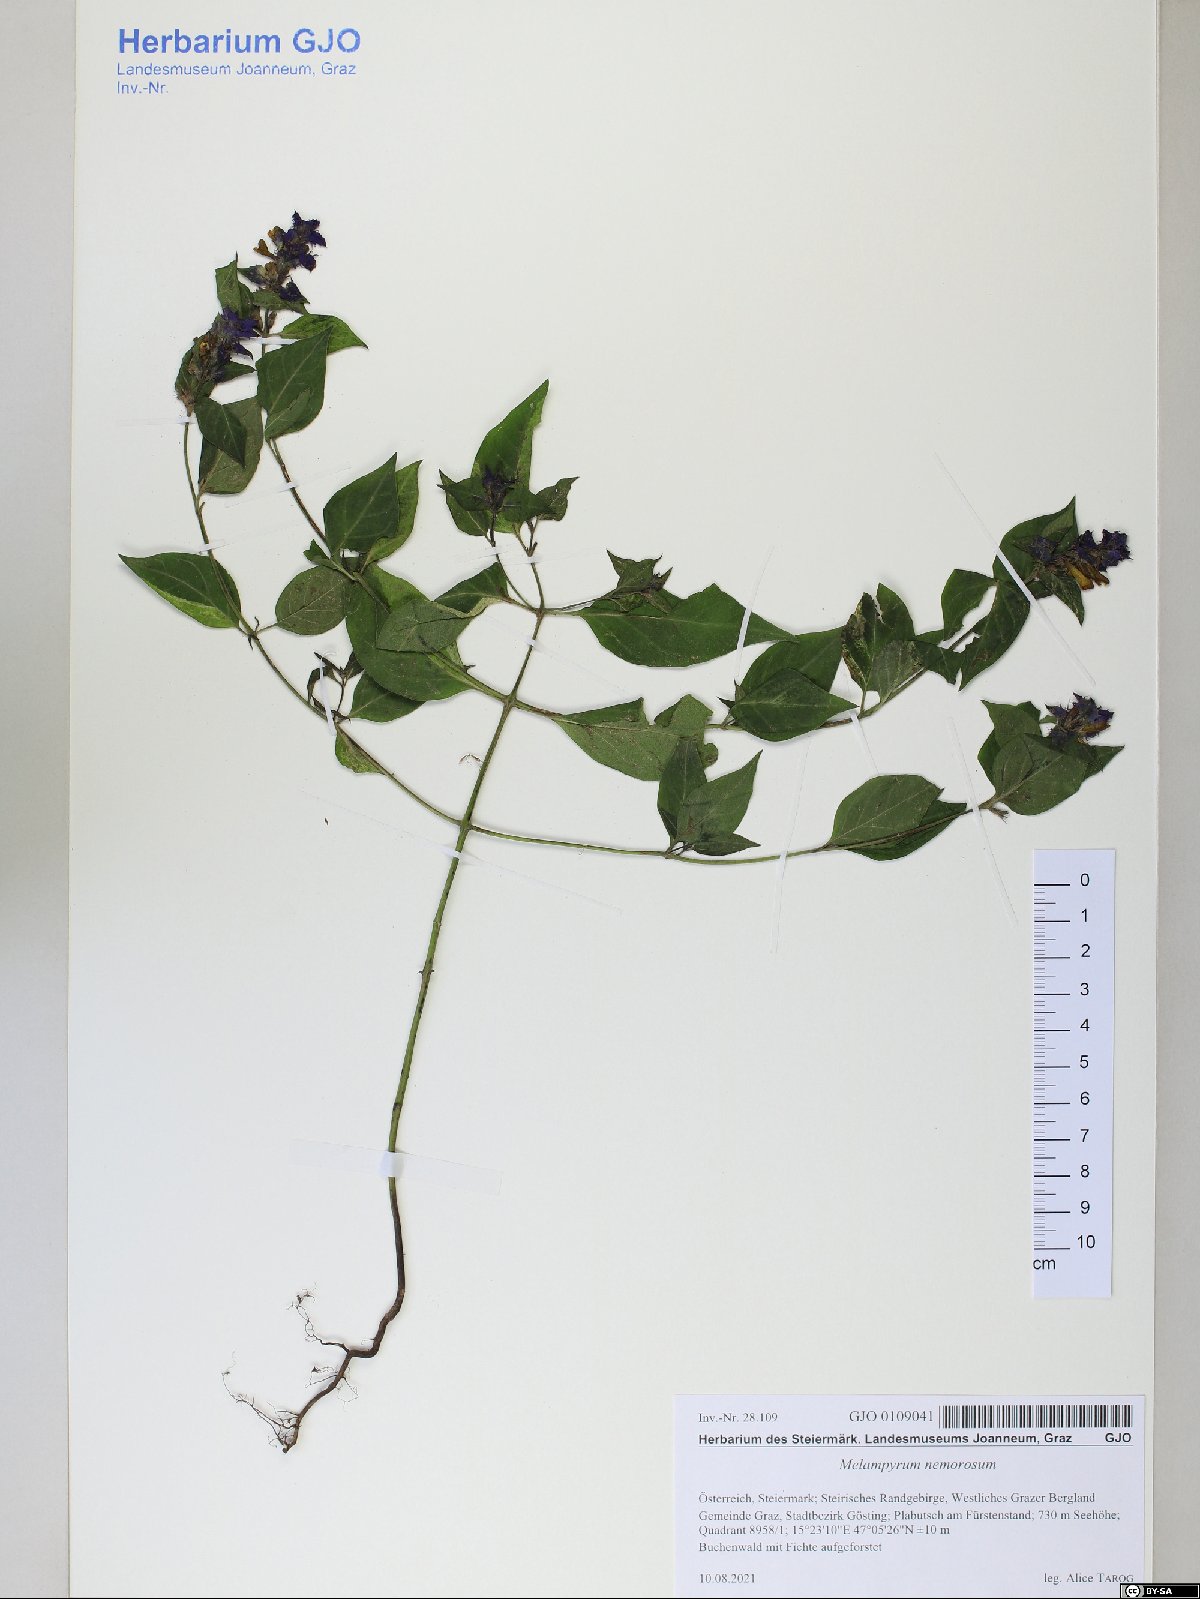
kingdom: Plantae
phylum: Tracheophyta
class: Magnoliopsida
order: Lamiales
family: Orobanchaceae
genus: Melampyrum
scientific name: Melampyrum nemorosum
